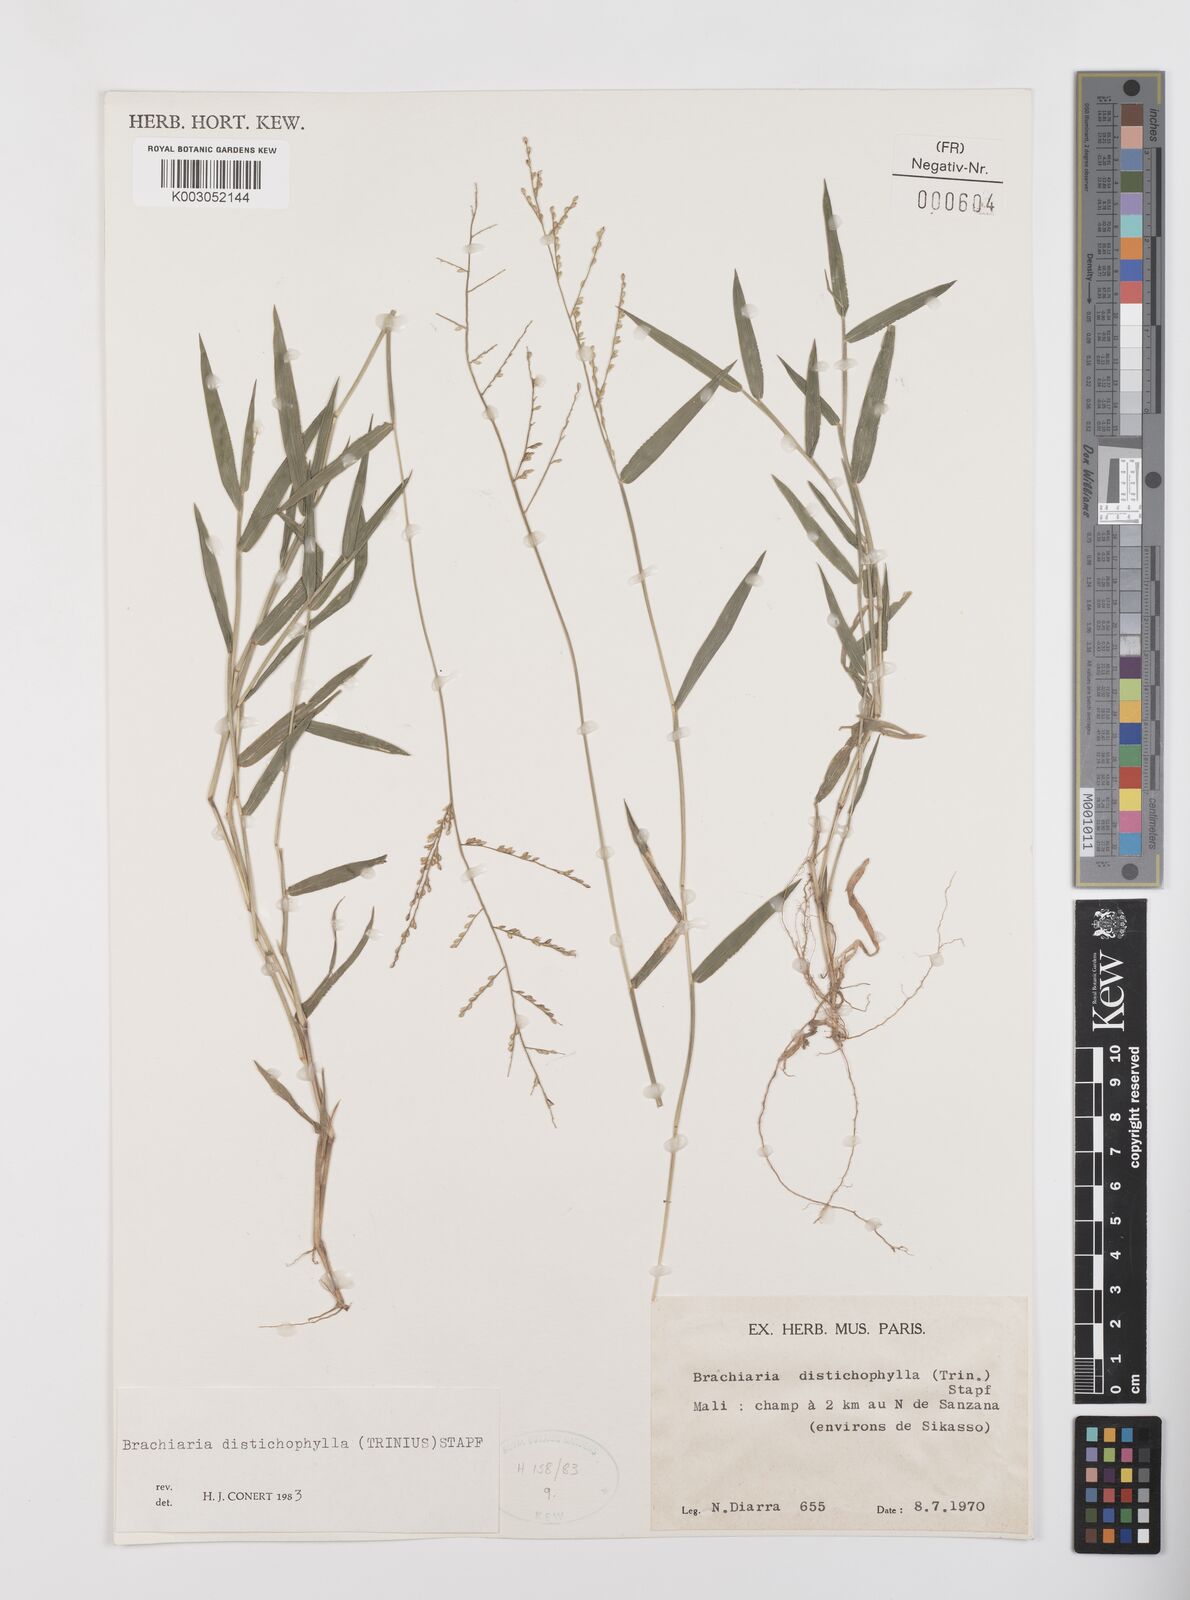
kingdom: Plantae
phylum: Tracheophyta
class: Liliopsida
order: Poales
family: Poaceae
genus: Urochloa
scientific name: Urochloa villosa
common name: Hairy signalgrass
